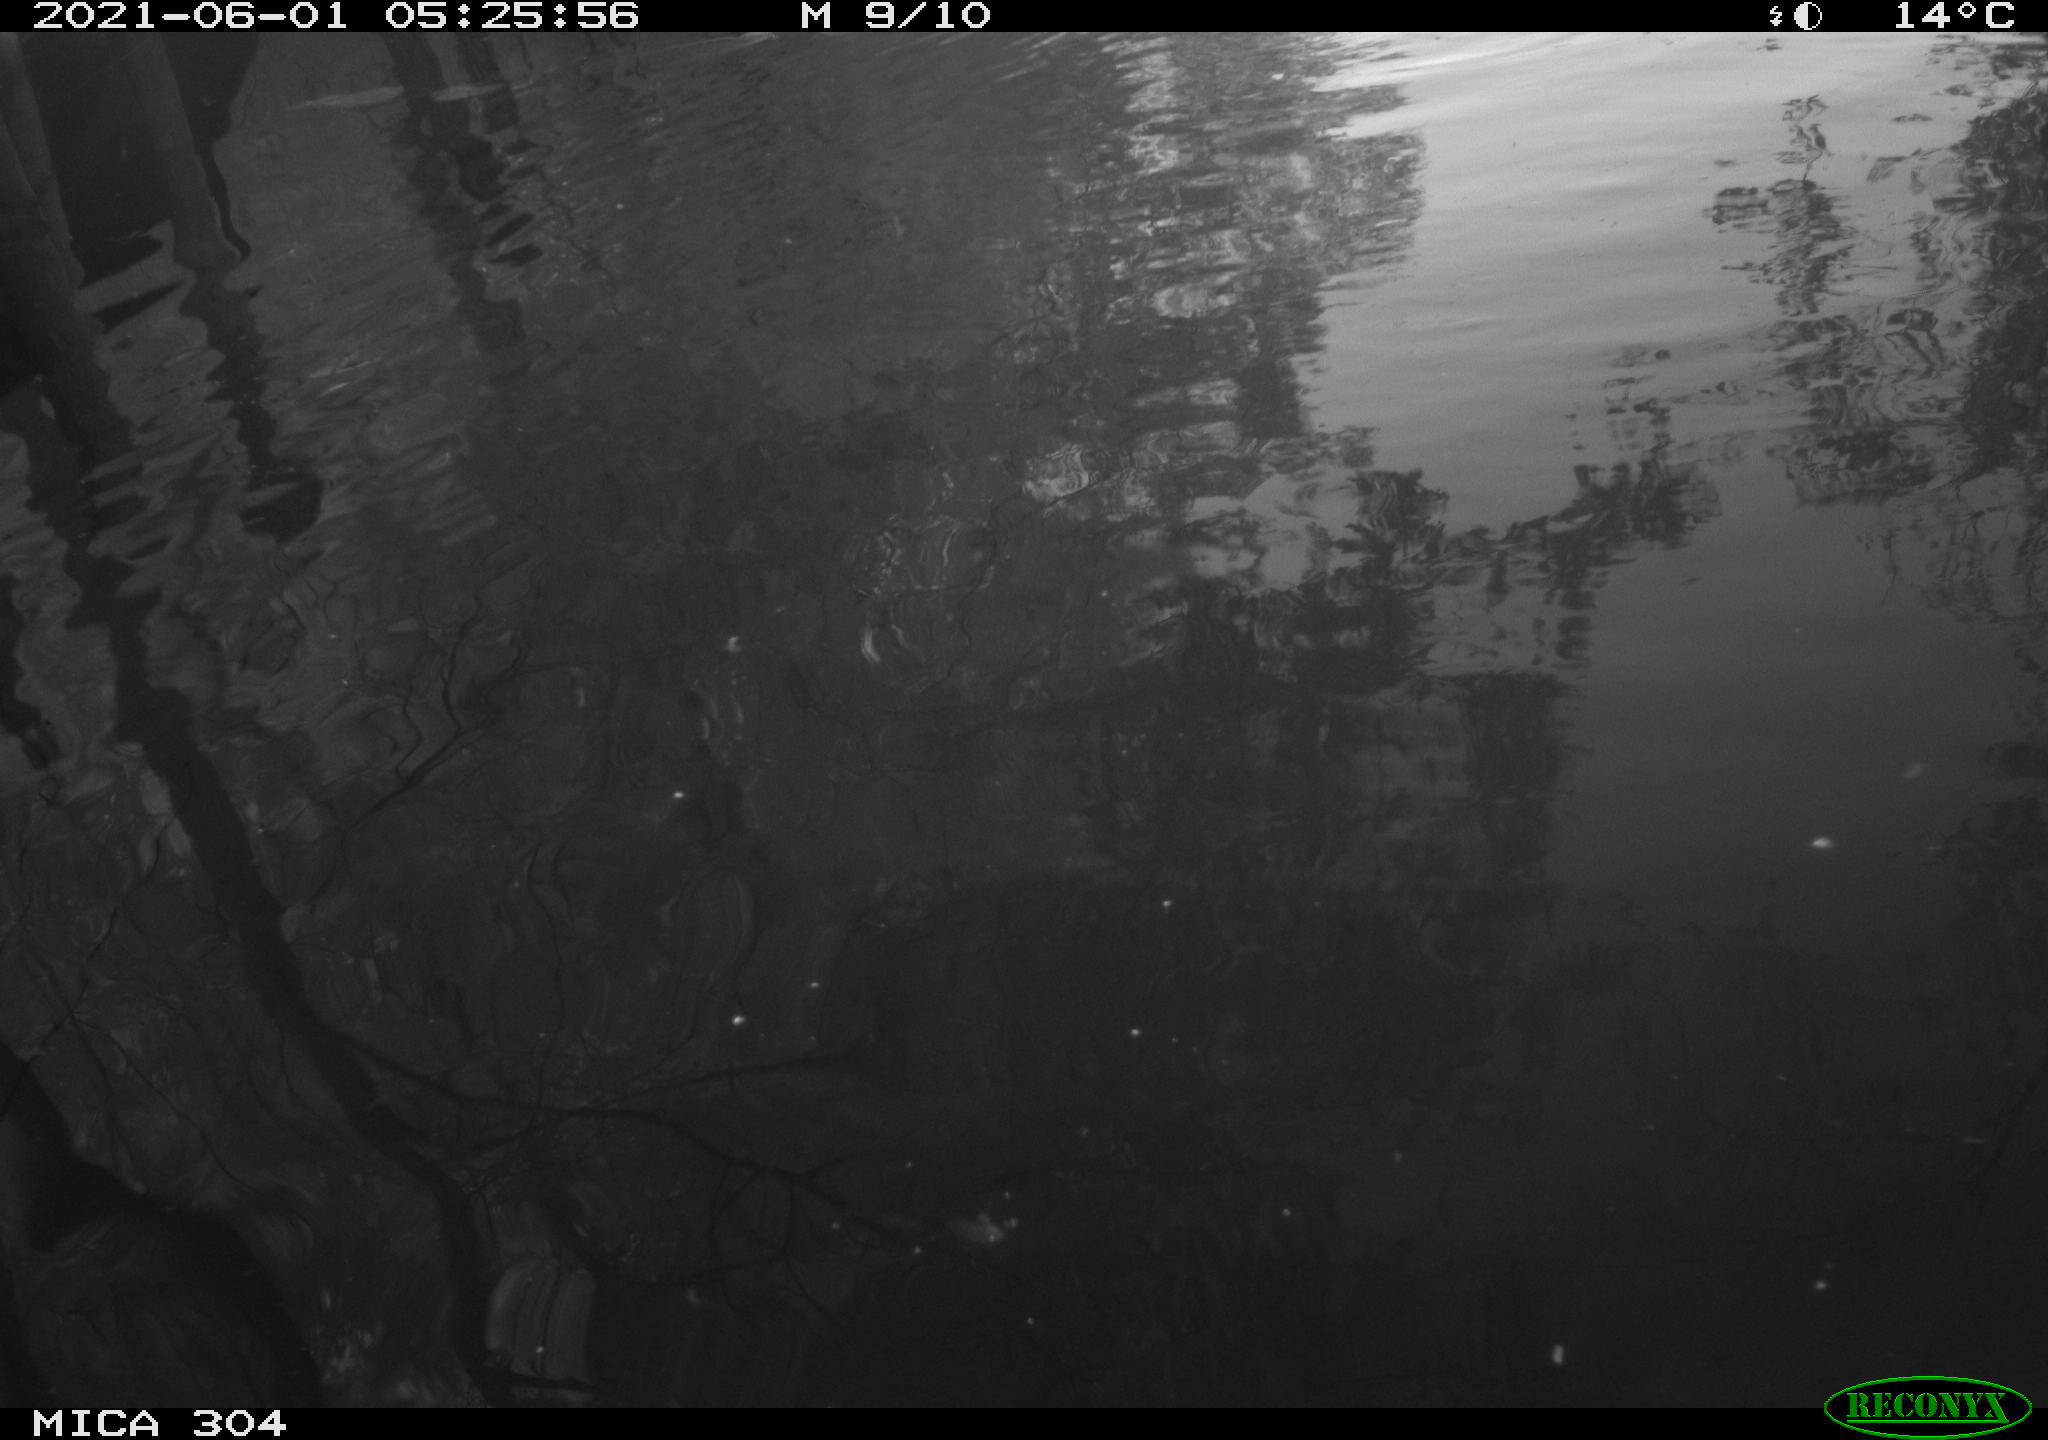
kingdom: Animalia
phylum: Chordata
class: Aves
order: Anseriformes
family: Anatidae
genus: Anas
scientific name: Anas platyrhynchos
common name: Mallard
